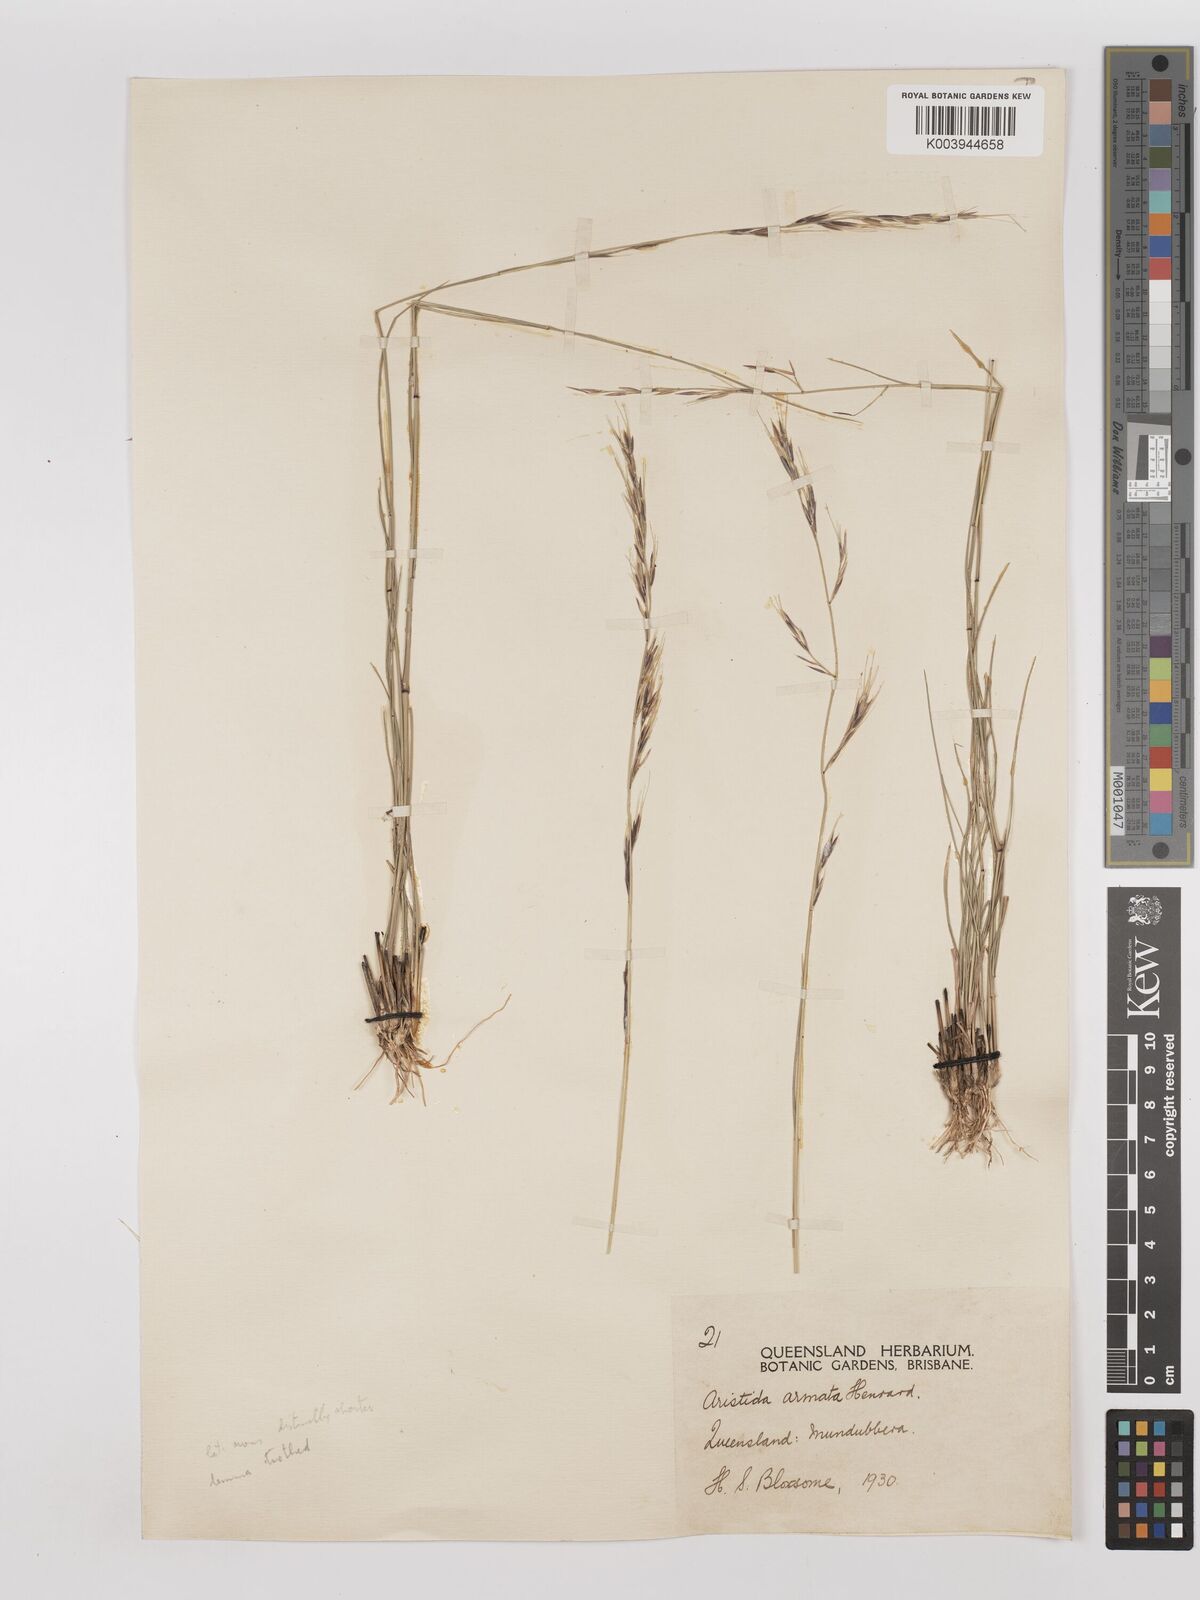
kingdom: Plantae
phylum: Tracheophyta
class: Liliopsida
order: Poales
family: Poaceae
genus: Aristida
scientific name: Aristida calycina
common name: Dark wire grass
